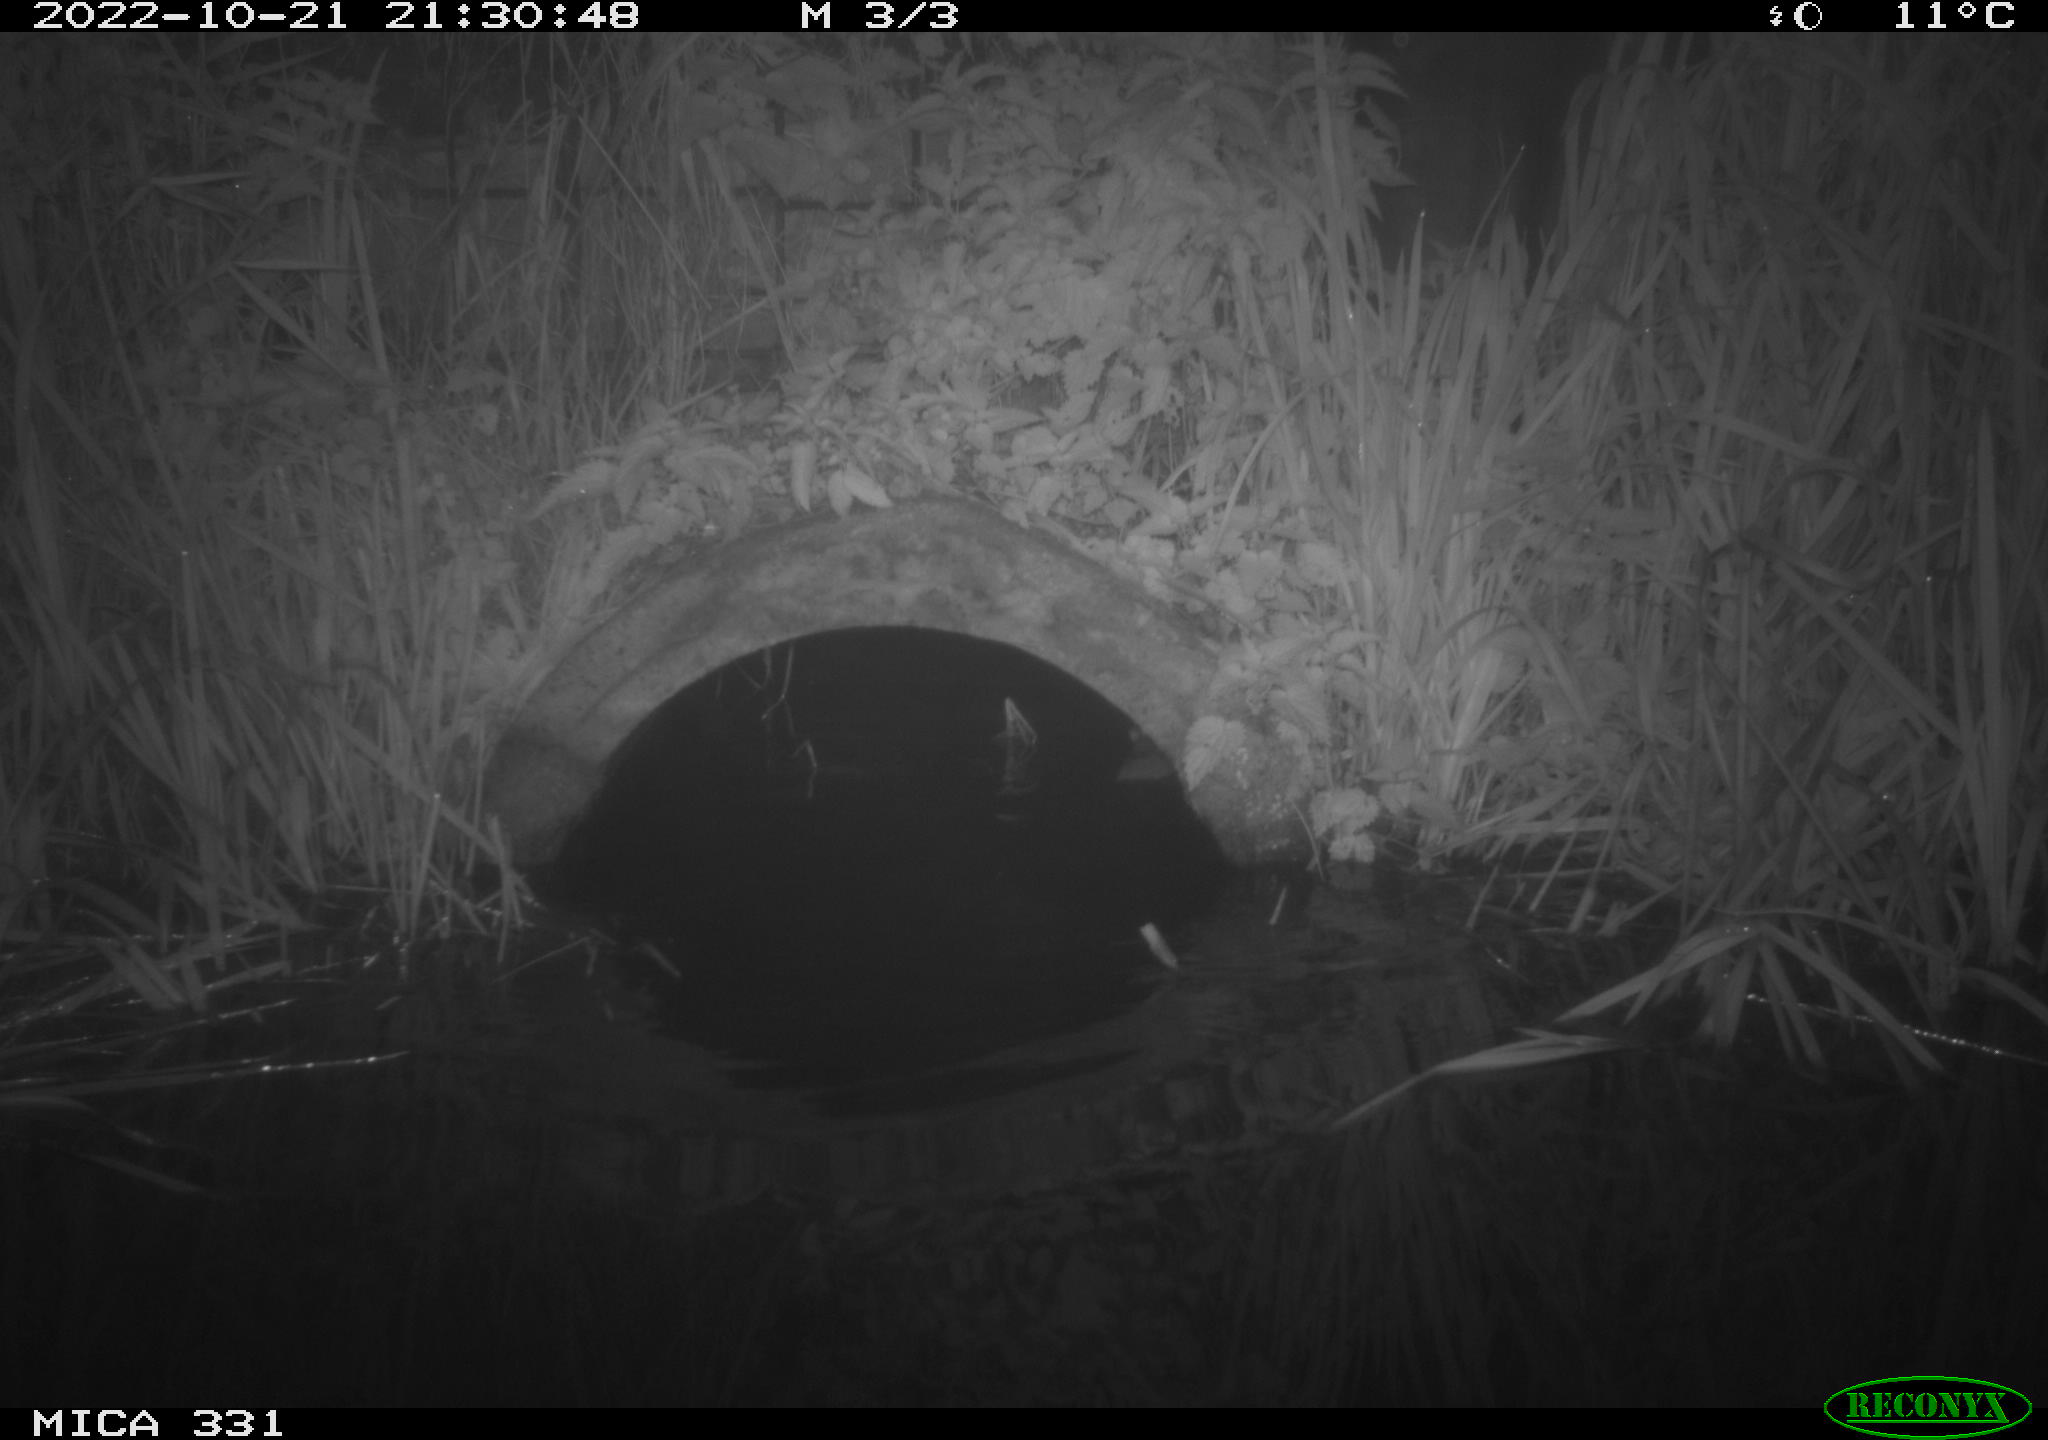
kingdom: Animalia
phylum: Chordata
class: Mammalia
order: Rodentia
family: Muridae
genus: Rattus
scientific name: Rattus norvegicus
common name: Brown rat
